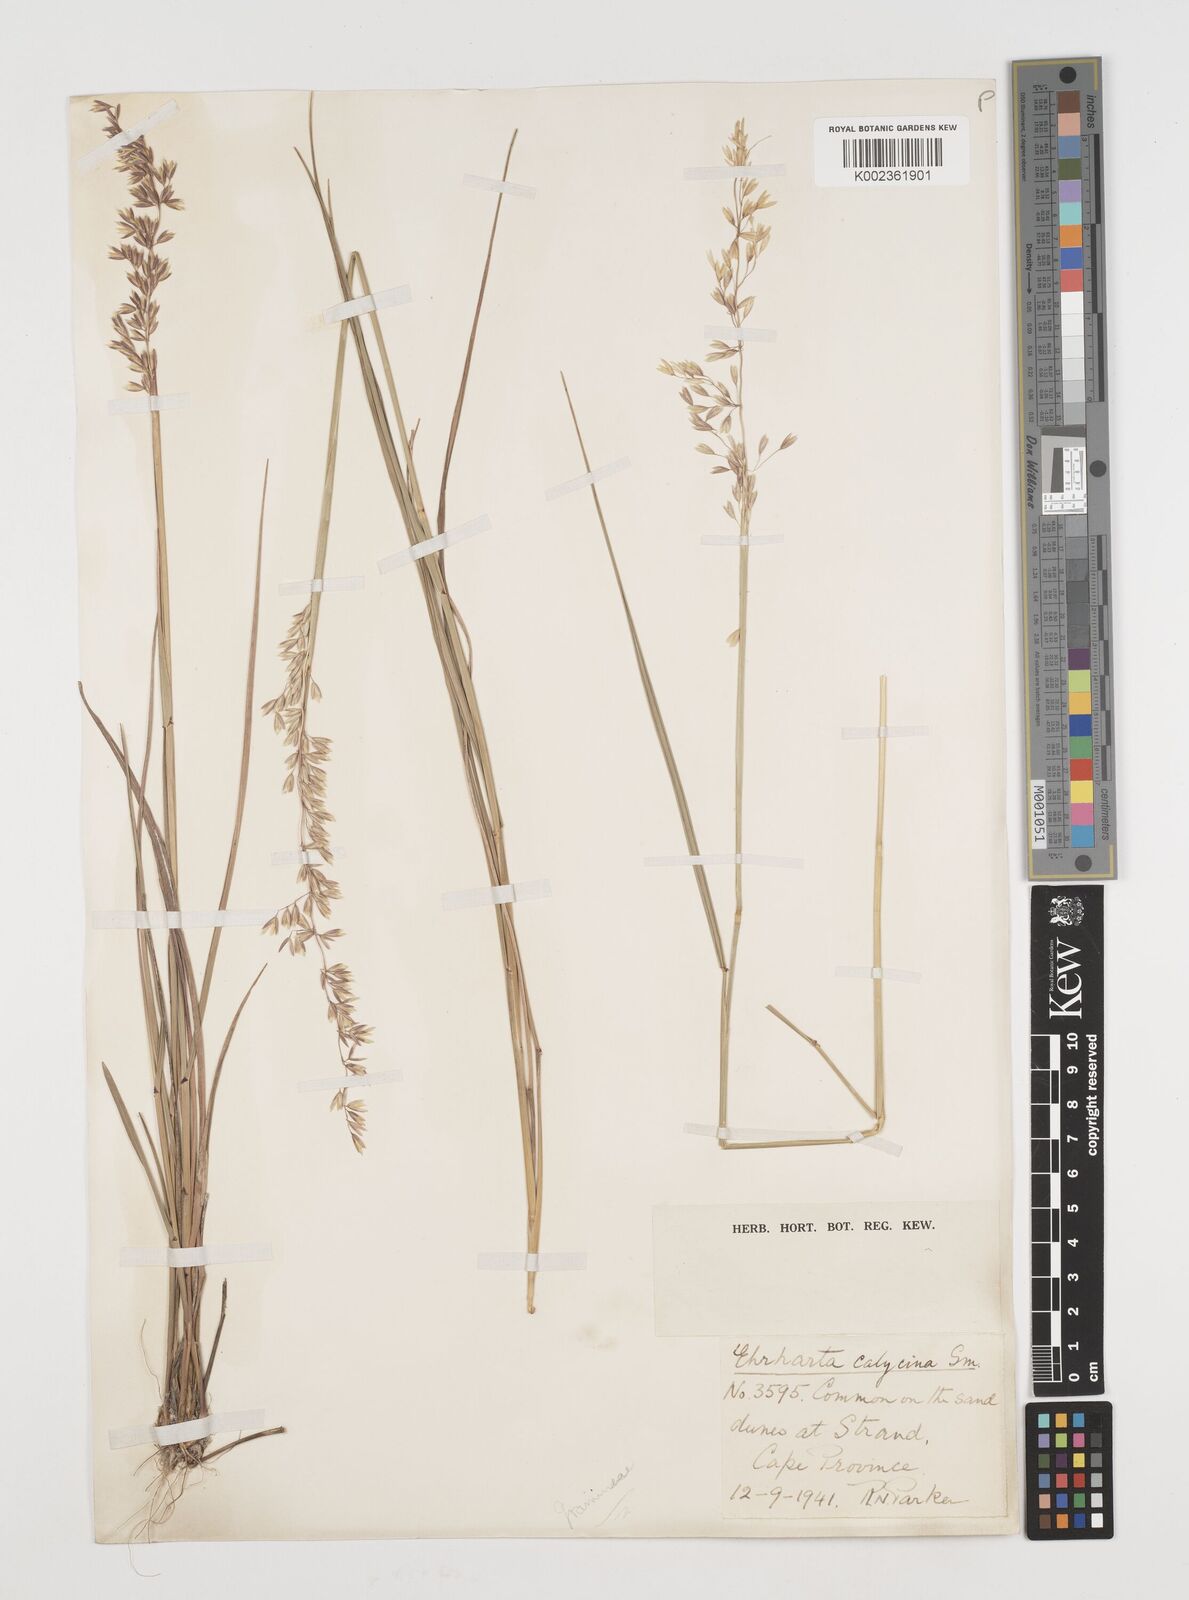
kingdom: Plantae
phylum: Tracheophyta
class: Liliopsida
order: Poales
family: Poaceae
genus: Ehrharta
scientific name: Ehrharta calycina
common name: Perennial veldtgrass
